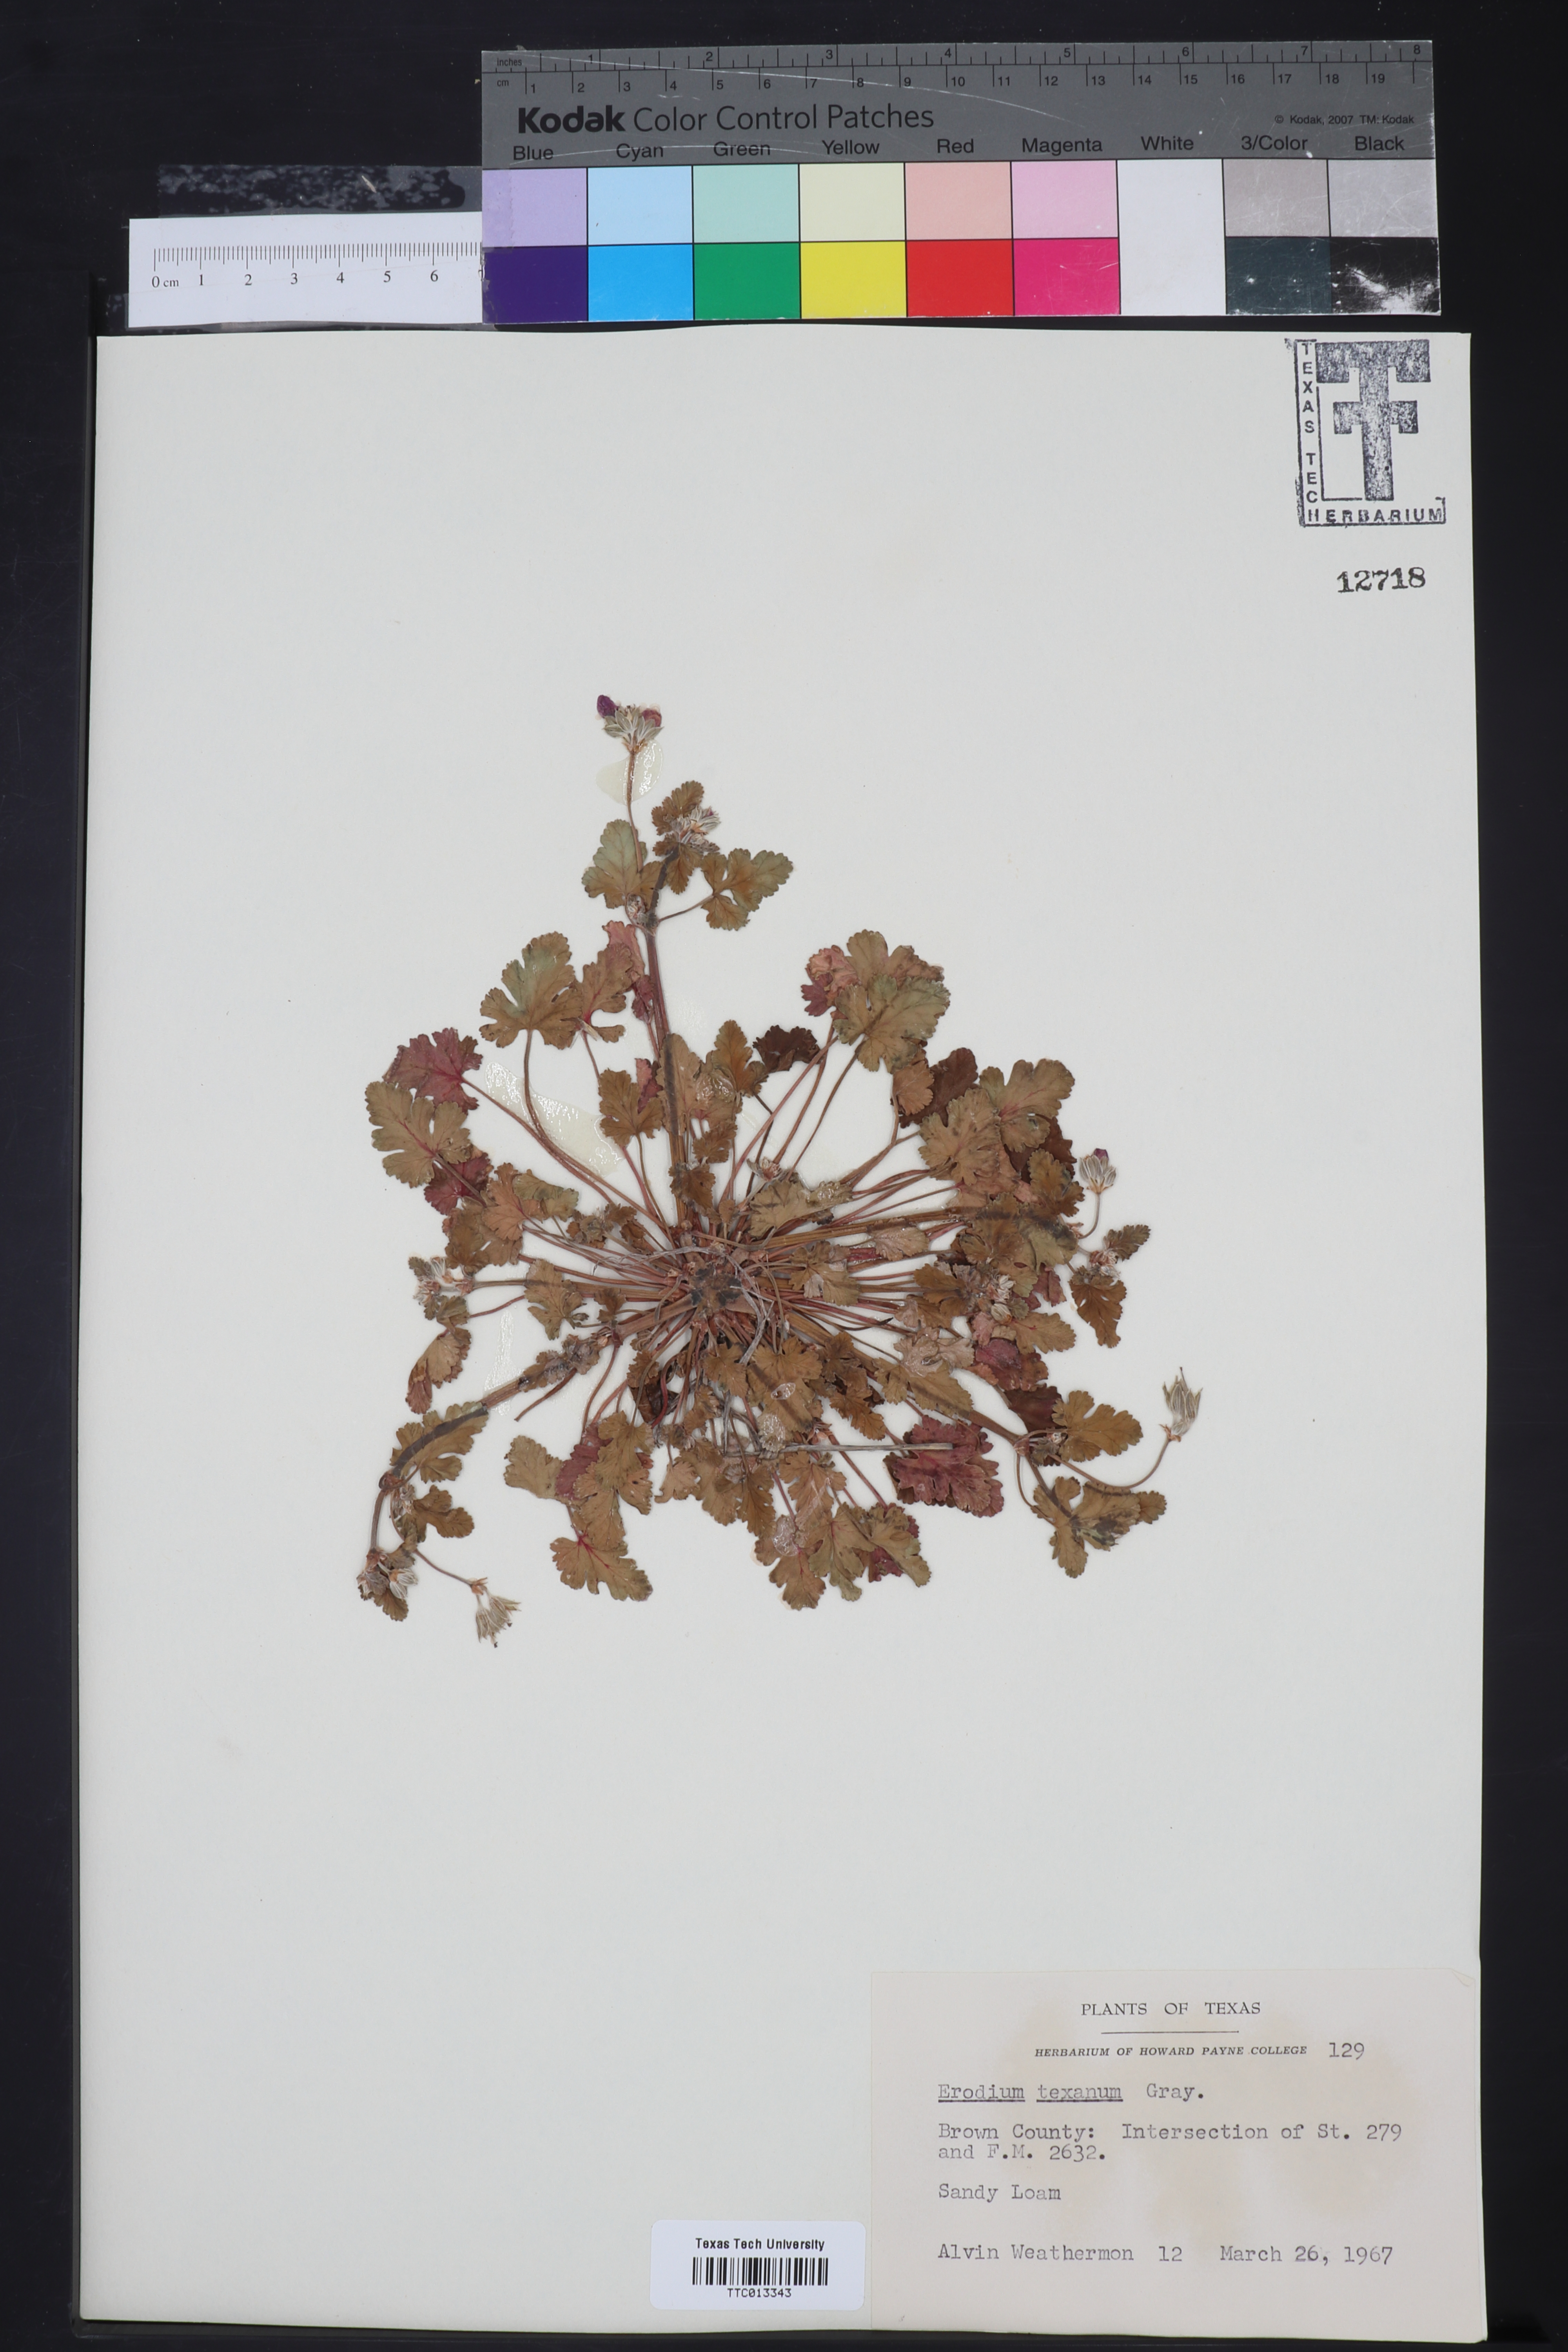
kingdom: Plantae
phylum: Tracheophyta
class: Magnoliopsida
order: Geraniales
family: Geraniaceae
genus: Erodium
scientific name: Erodium texanum
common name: Texas stork's-bill
